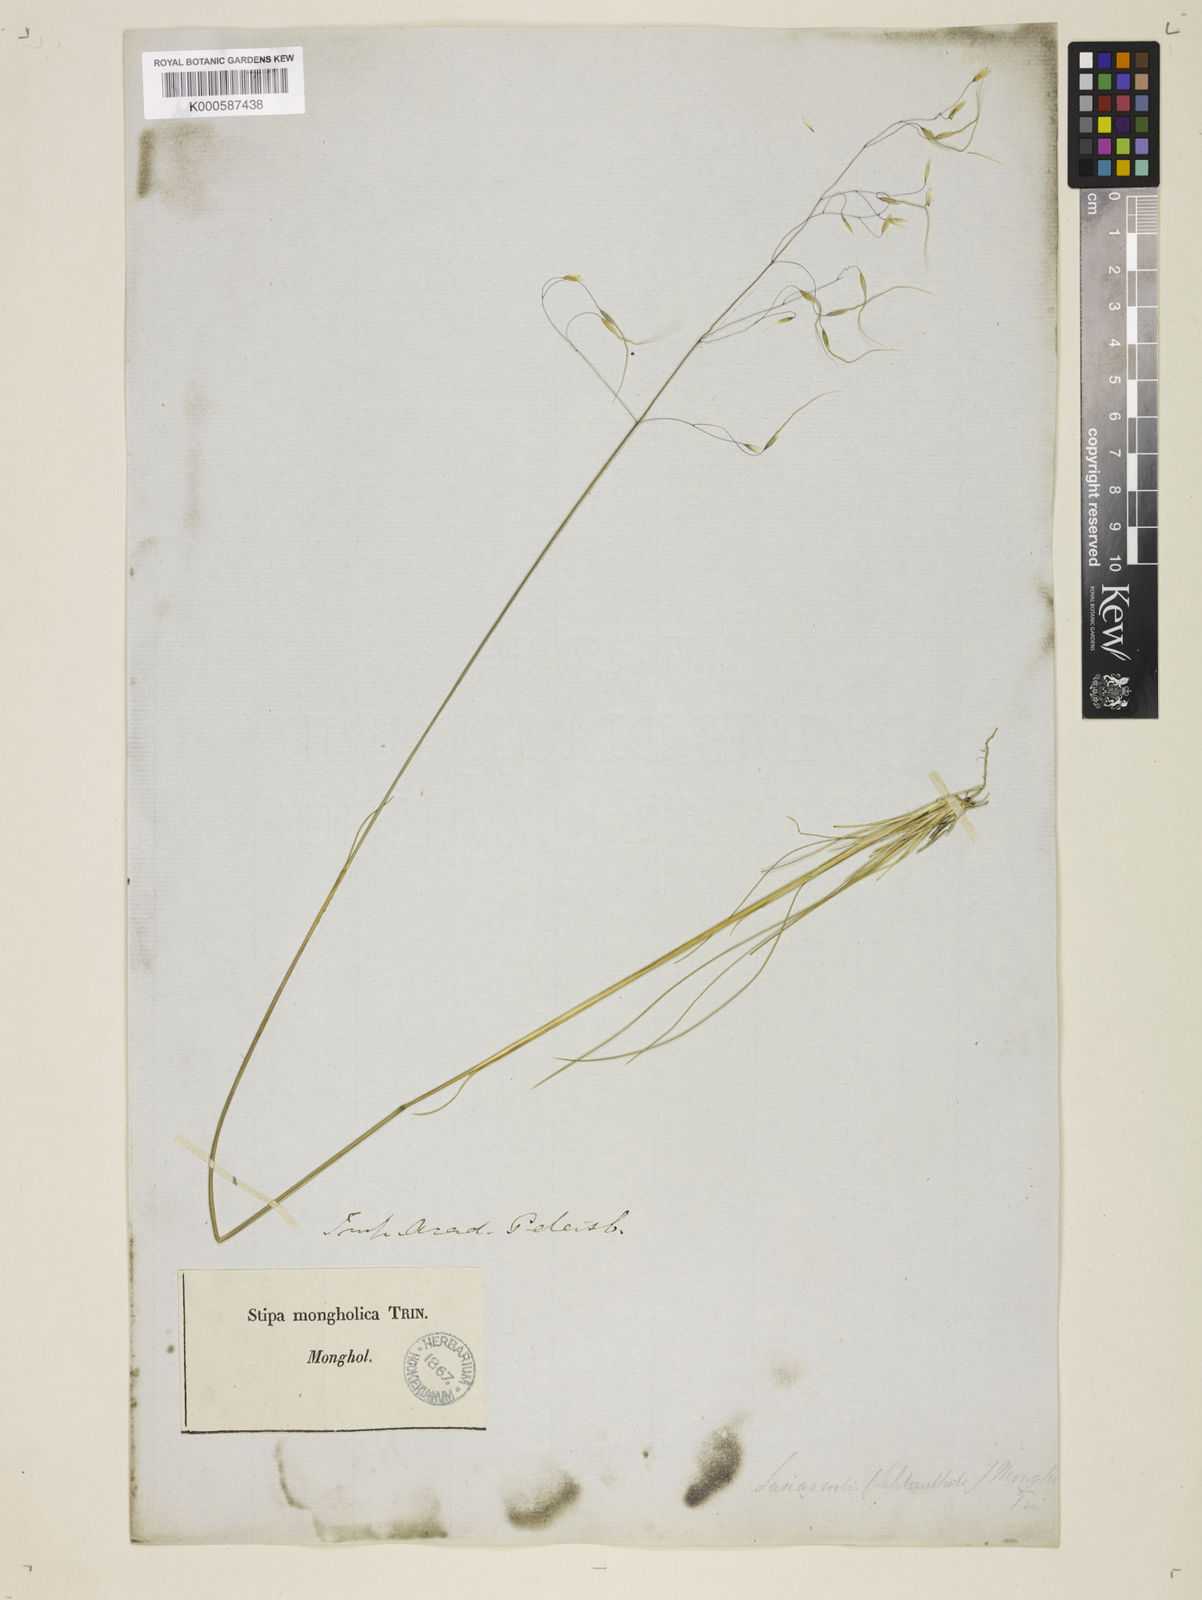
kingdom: Plantae
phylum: Tracheophyta
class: Liliopsida
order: Poales
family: Poaceae
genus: Ptilagrostis
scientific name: Ptilagrostis mongholica
